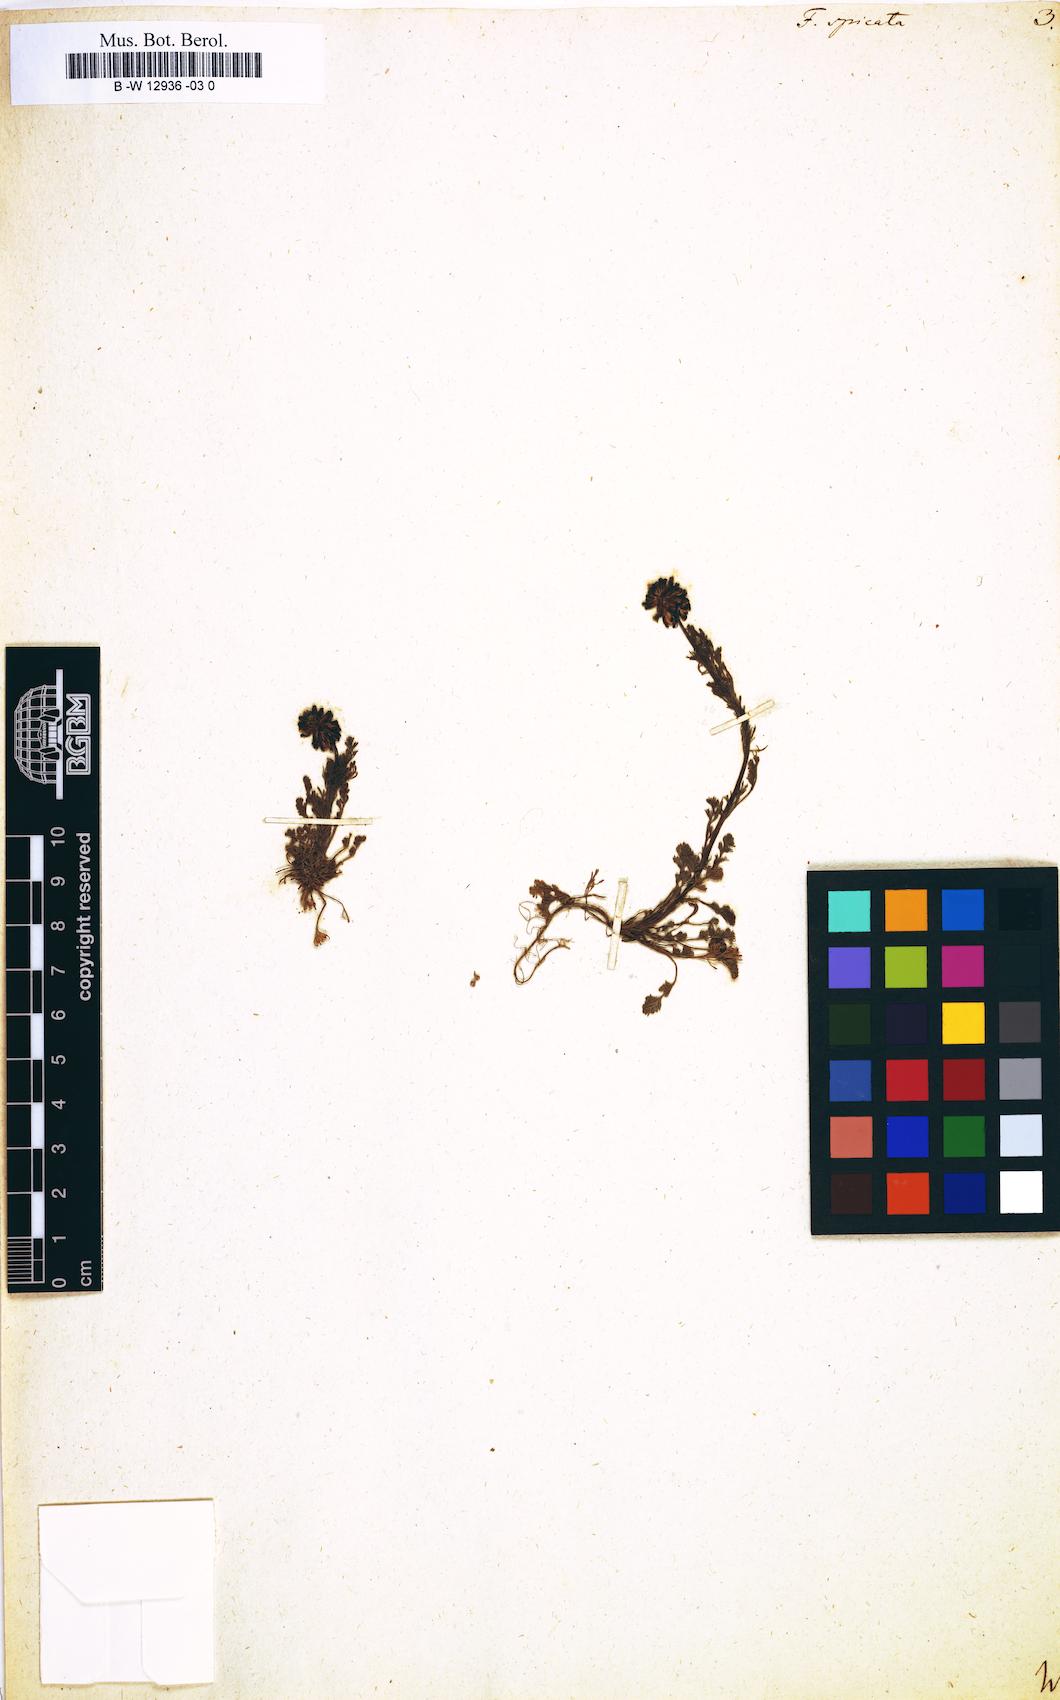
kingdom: Plantae
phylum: Tracheophyta
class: Magnoliopsida
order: Ranunculales
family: Papaveraceae
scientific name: Papaveraceae
